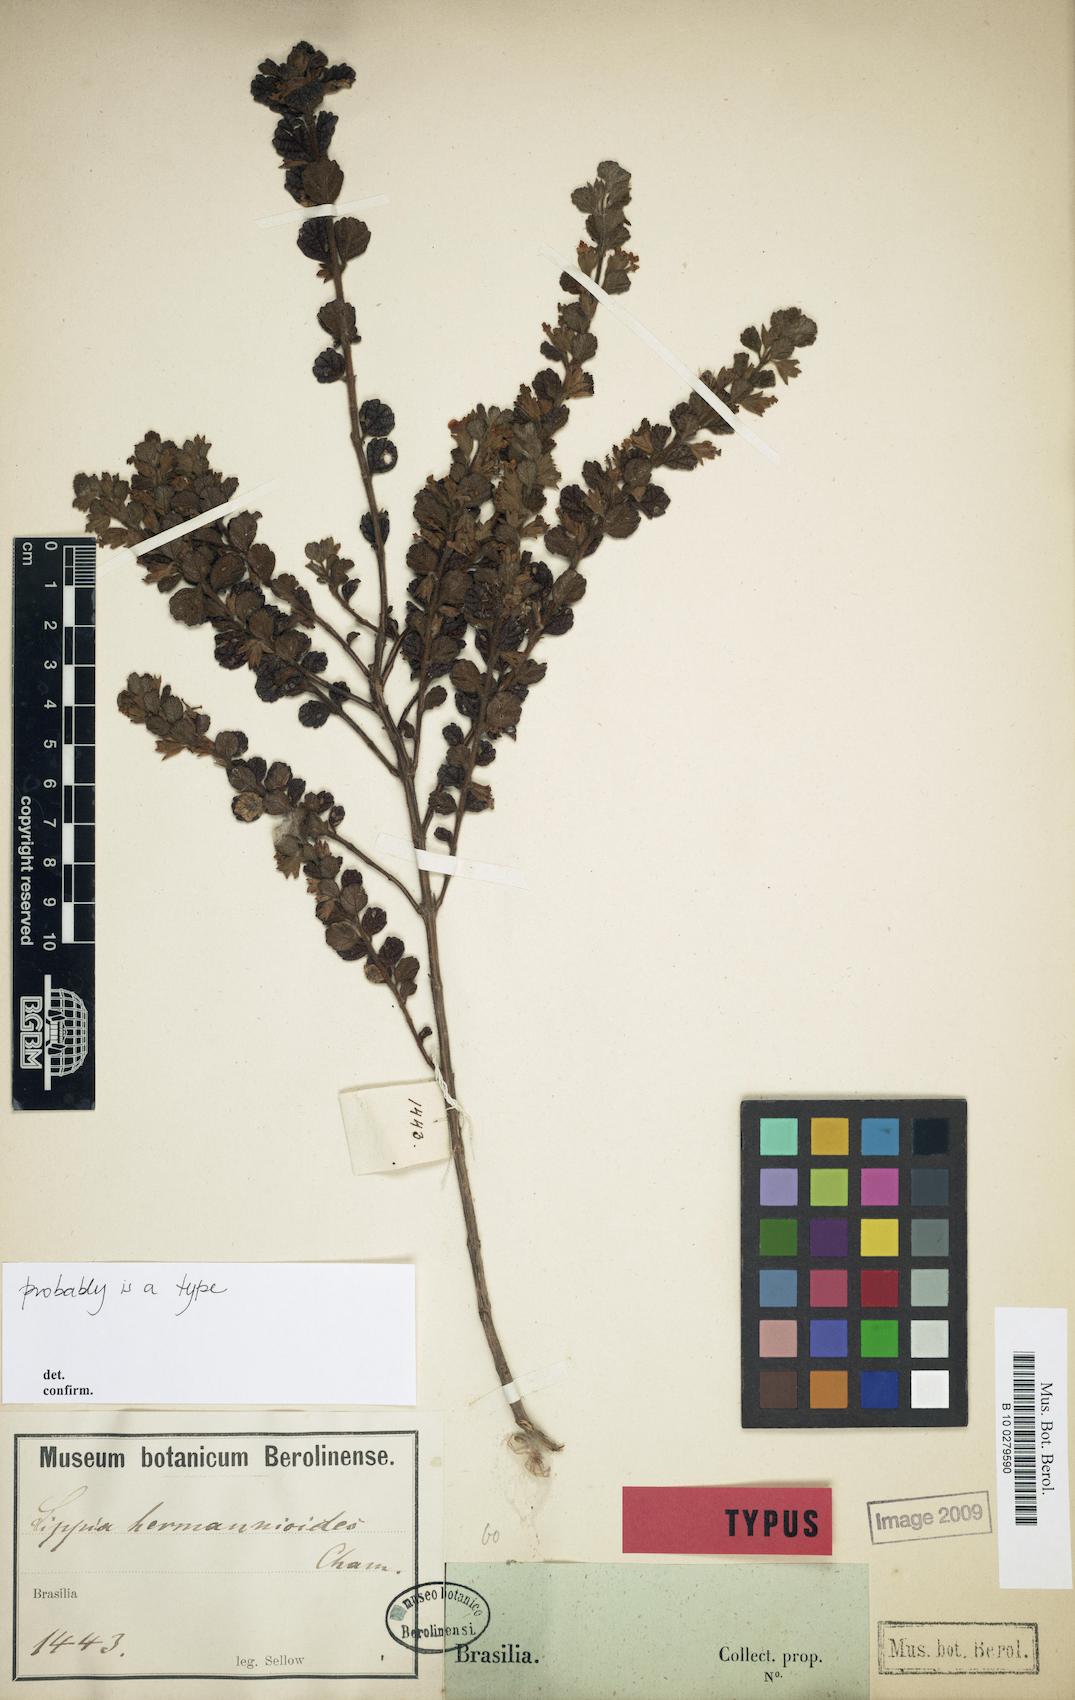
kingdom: Plantae
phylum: Tracheophyta
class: Magnoliopsida
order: Lamiales
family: Verbenaceae
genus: Lippia
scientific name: Lippia hermannioides
